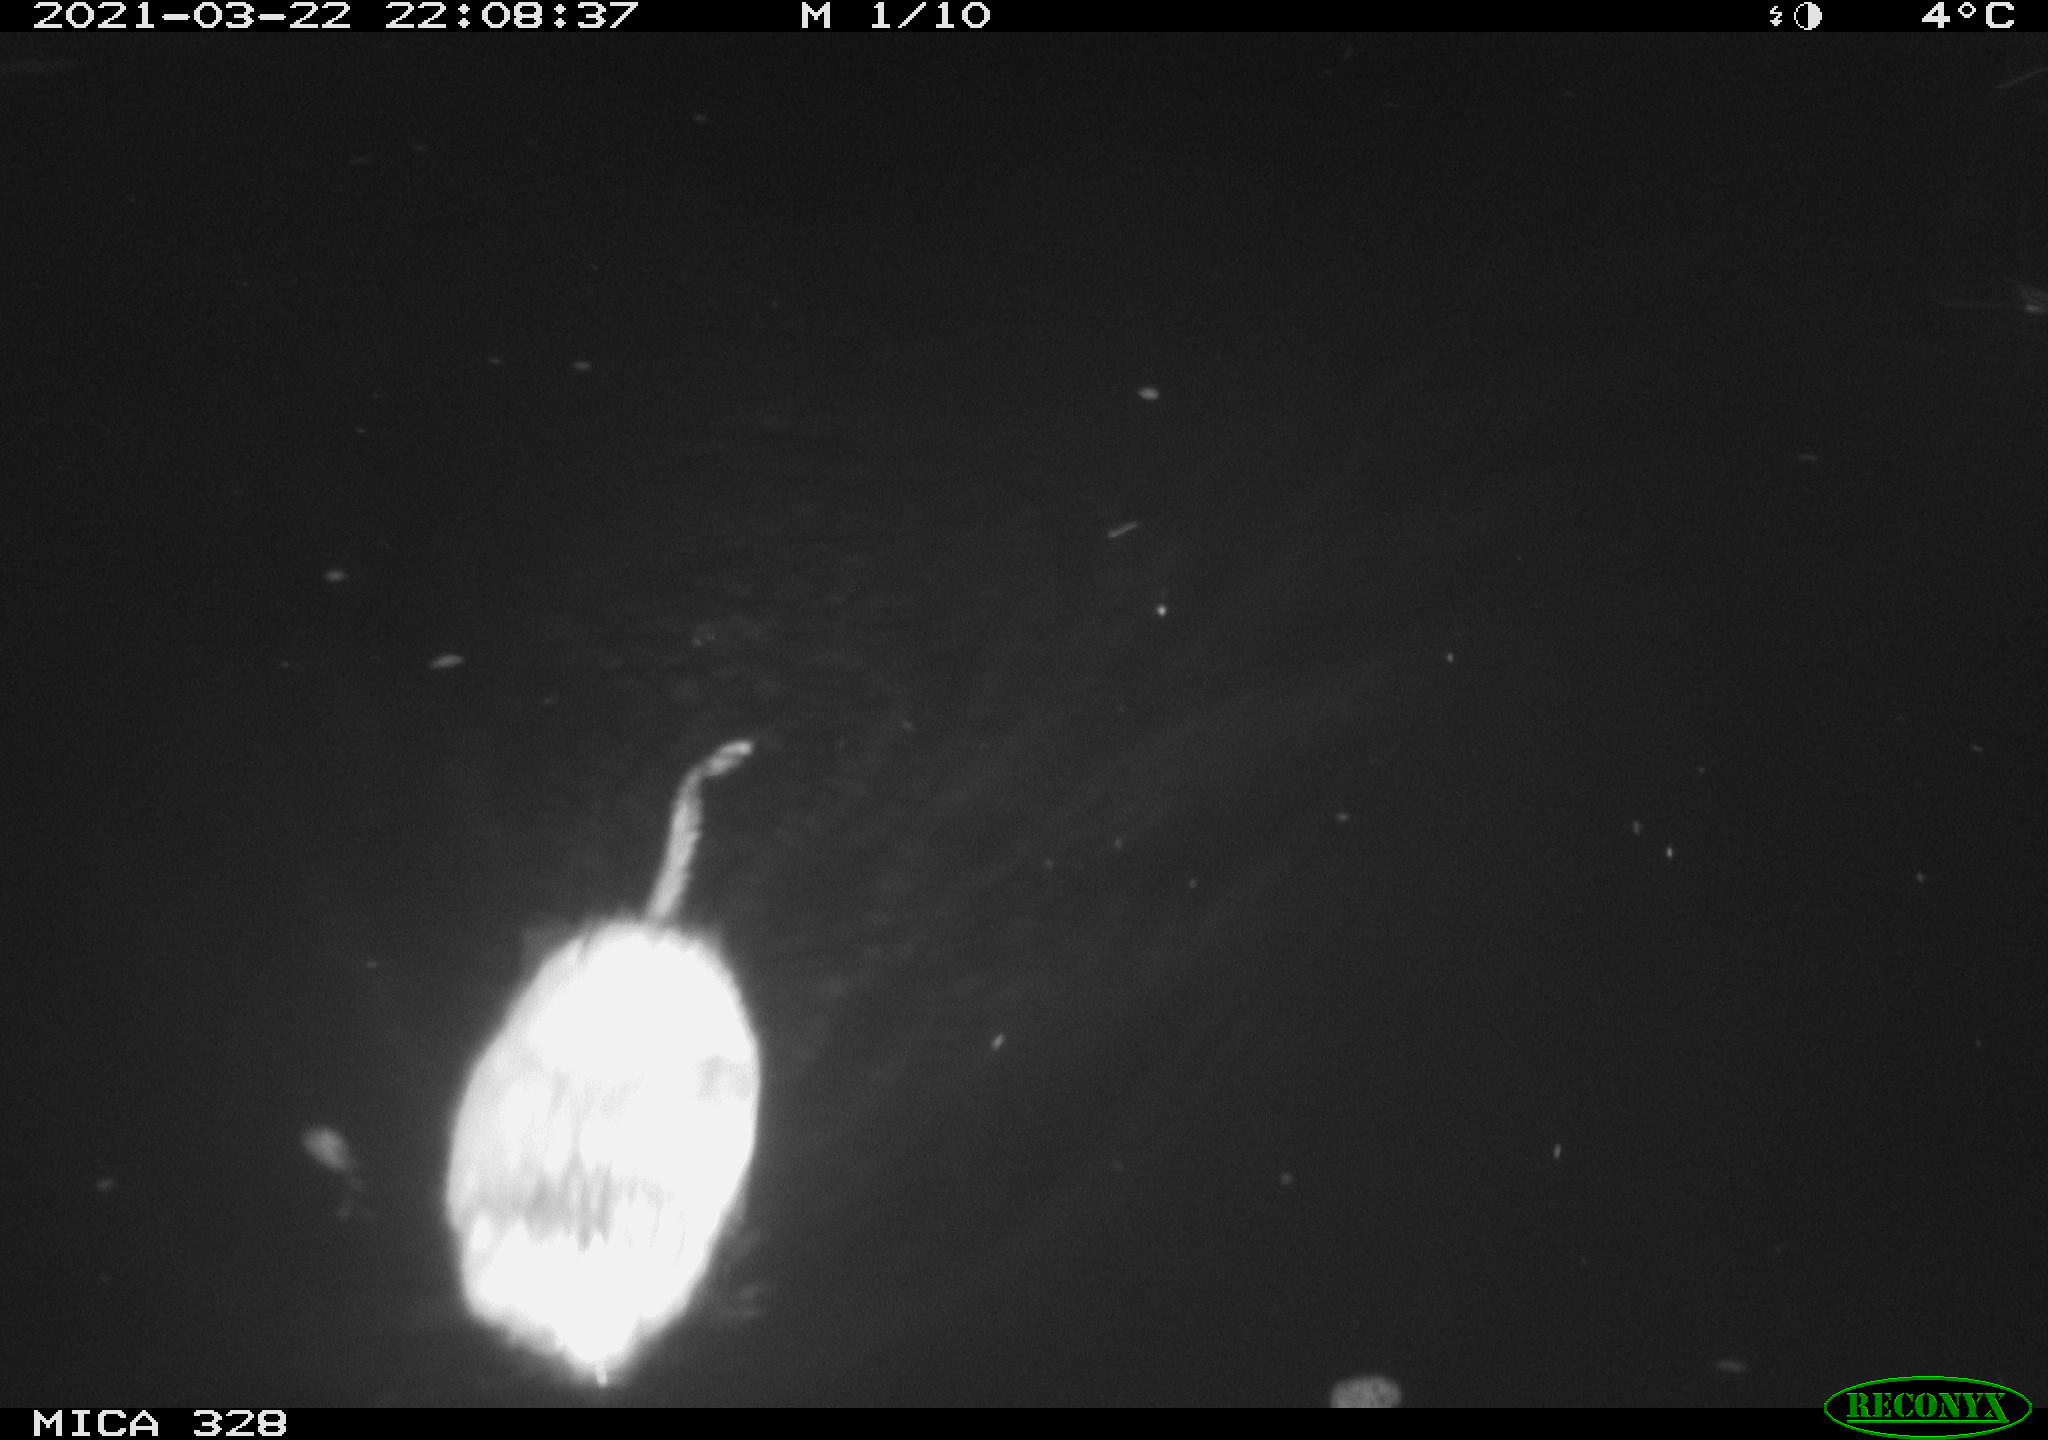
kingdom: Animalia
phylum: Chordata
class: Mammalia
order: Rodentia
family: Cricetidae
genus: Ondatra
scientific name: Ondatra zibethicus
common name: Muskrat
